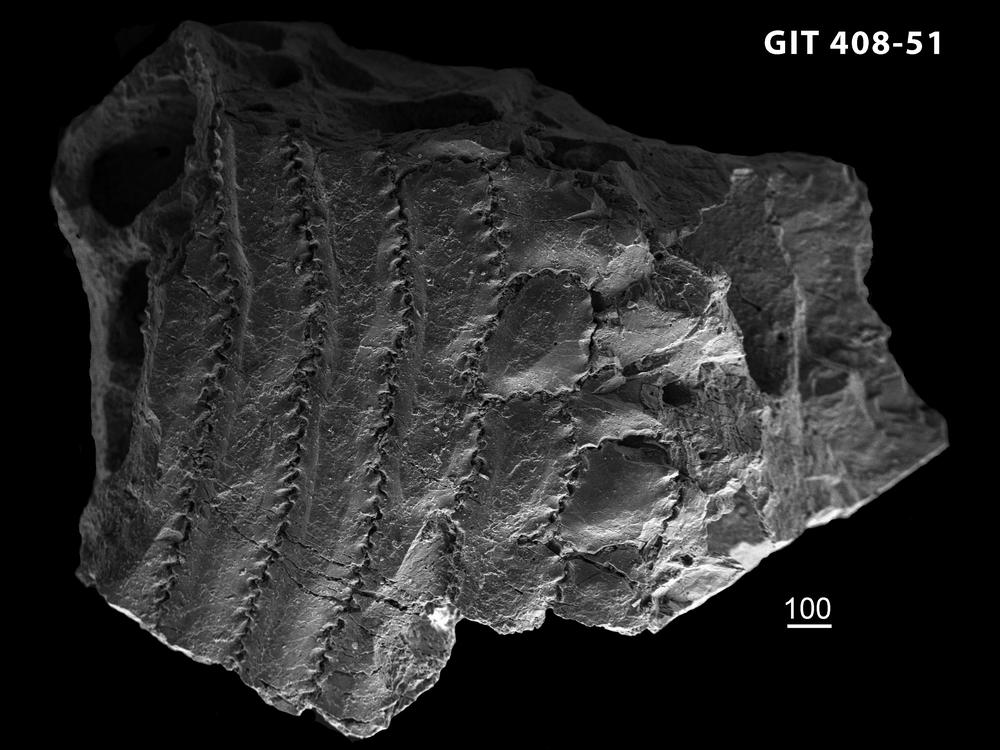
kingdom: Animalia
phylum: Chordata
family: Cyathaspididae
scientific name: Cyathaspididae
